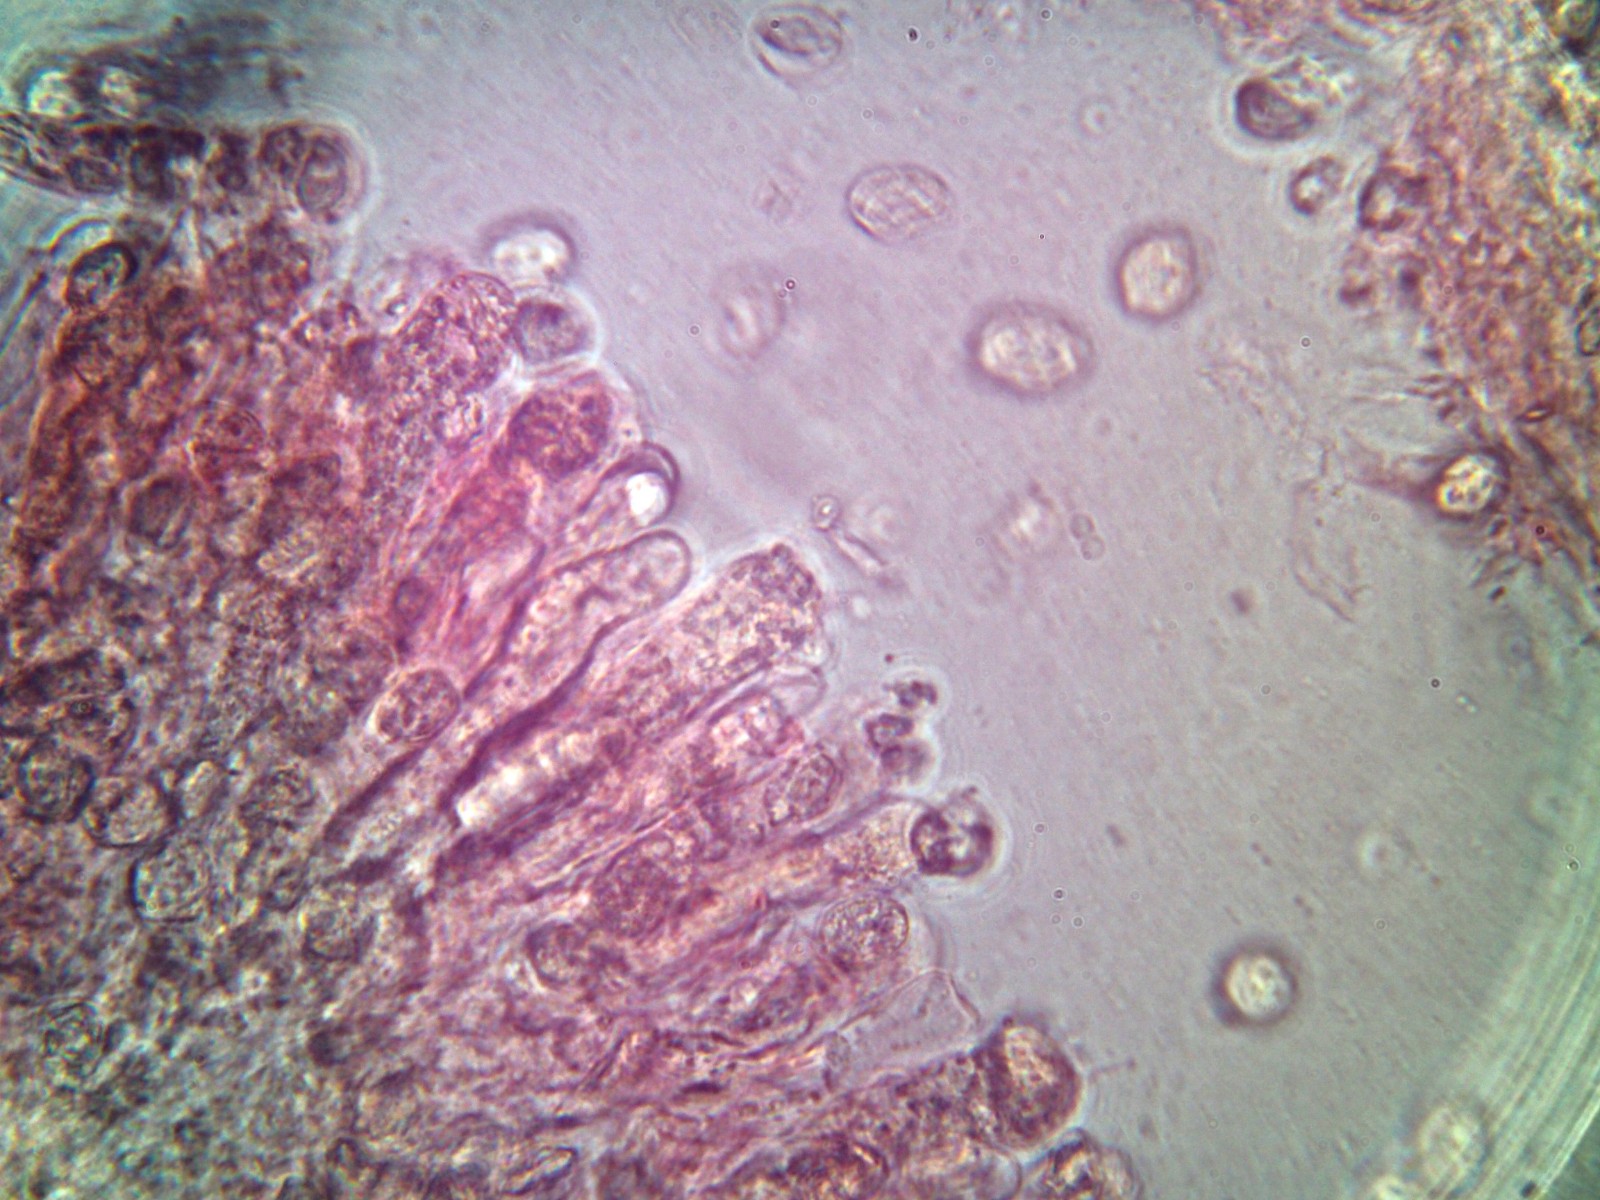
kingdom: Fungi
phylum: Basidiomycota
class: Agaricomycetes
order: Russulales
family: Peniophoraceae
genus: Peniophora
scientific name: Peniophora incarnata
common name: laksefarvet voksskind
